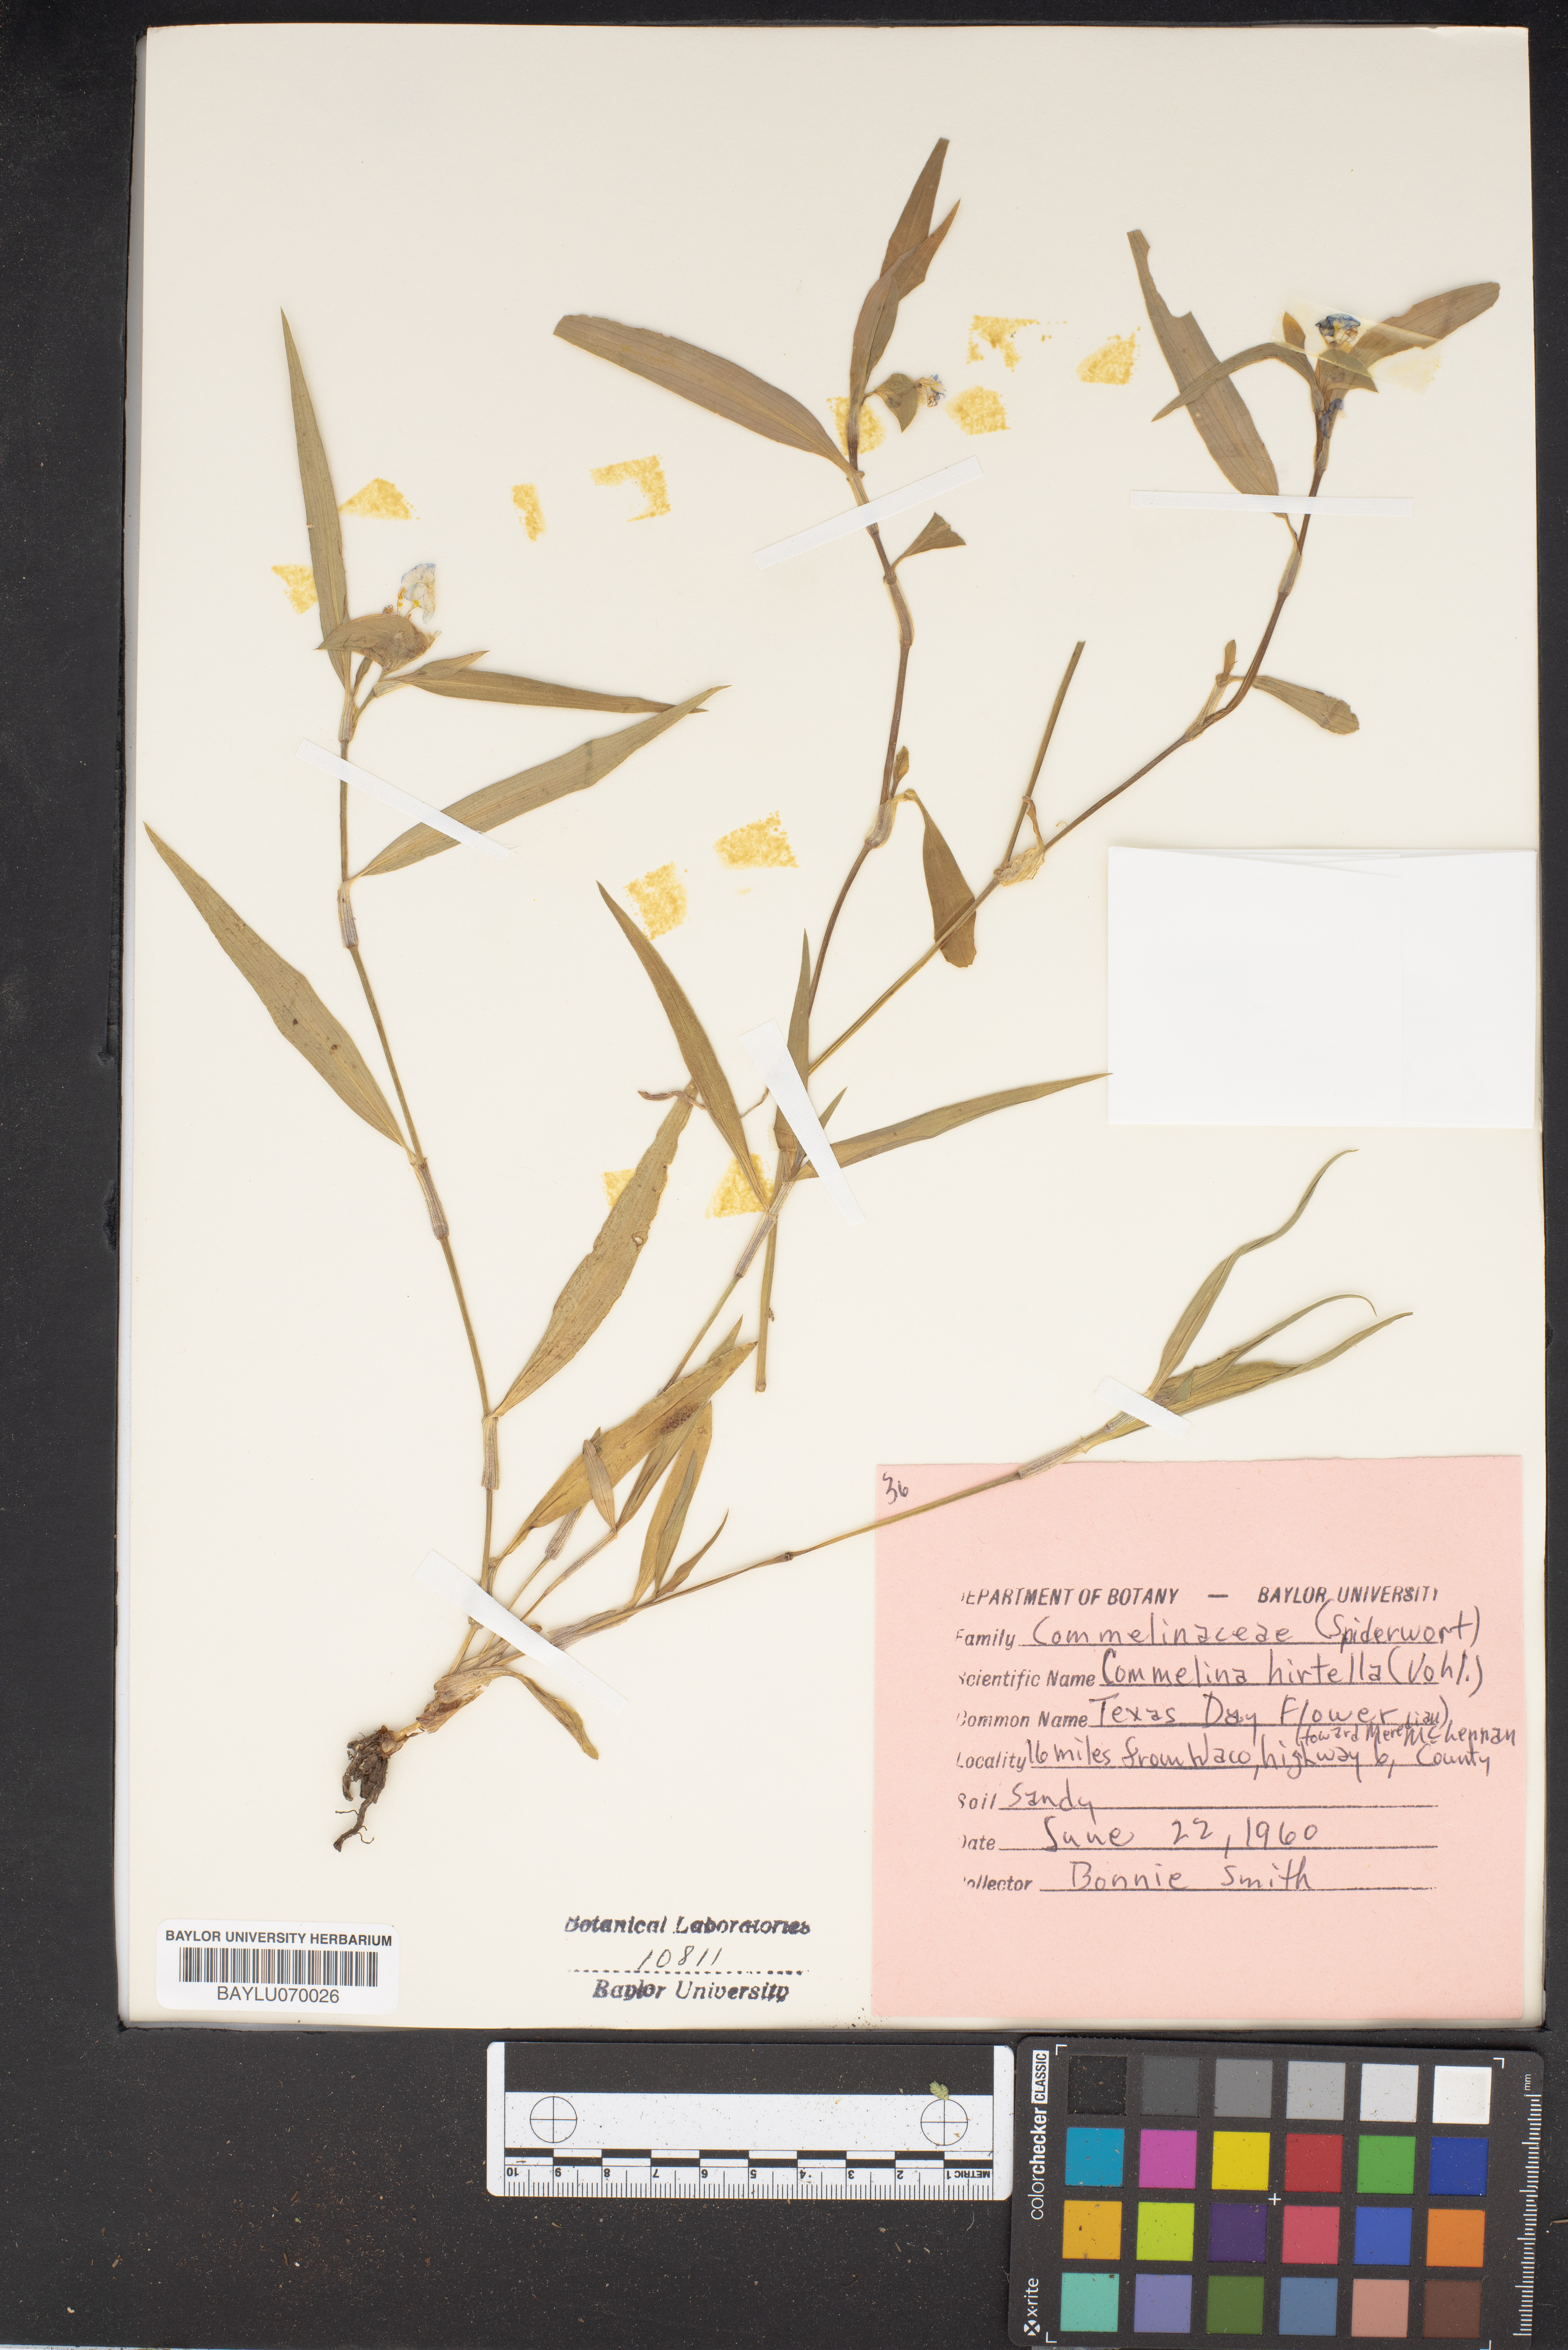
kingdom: Plantae
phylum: Tracheophyta
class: Liliopsida
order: Commelinales
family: Commelinaceae
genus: Commelina
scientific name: Commelina virginica
